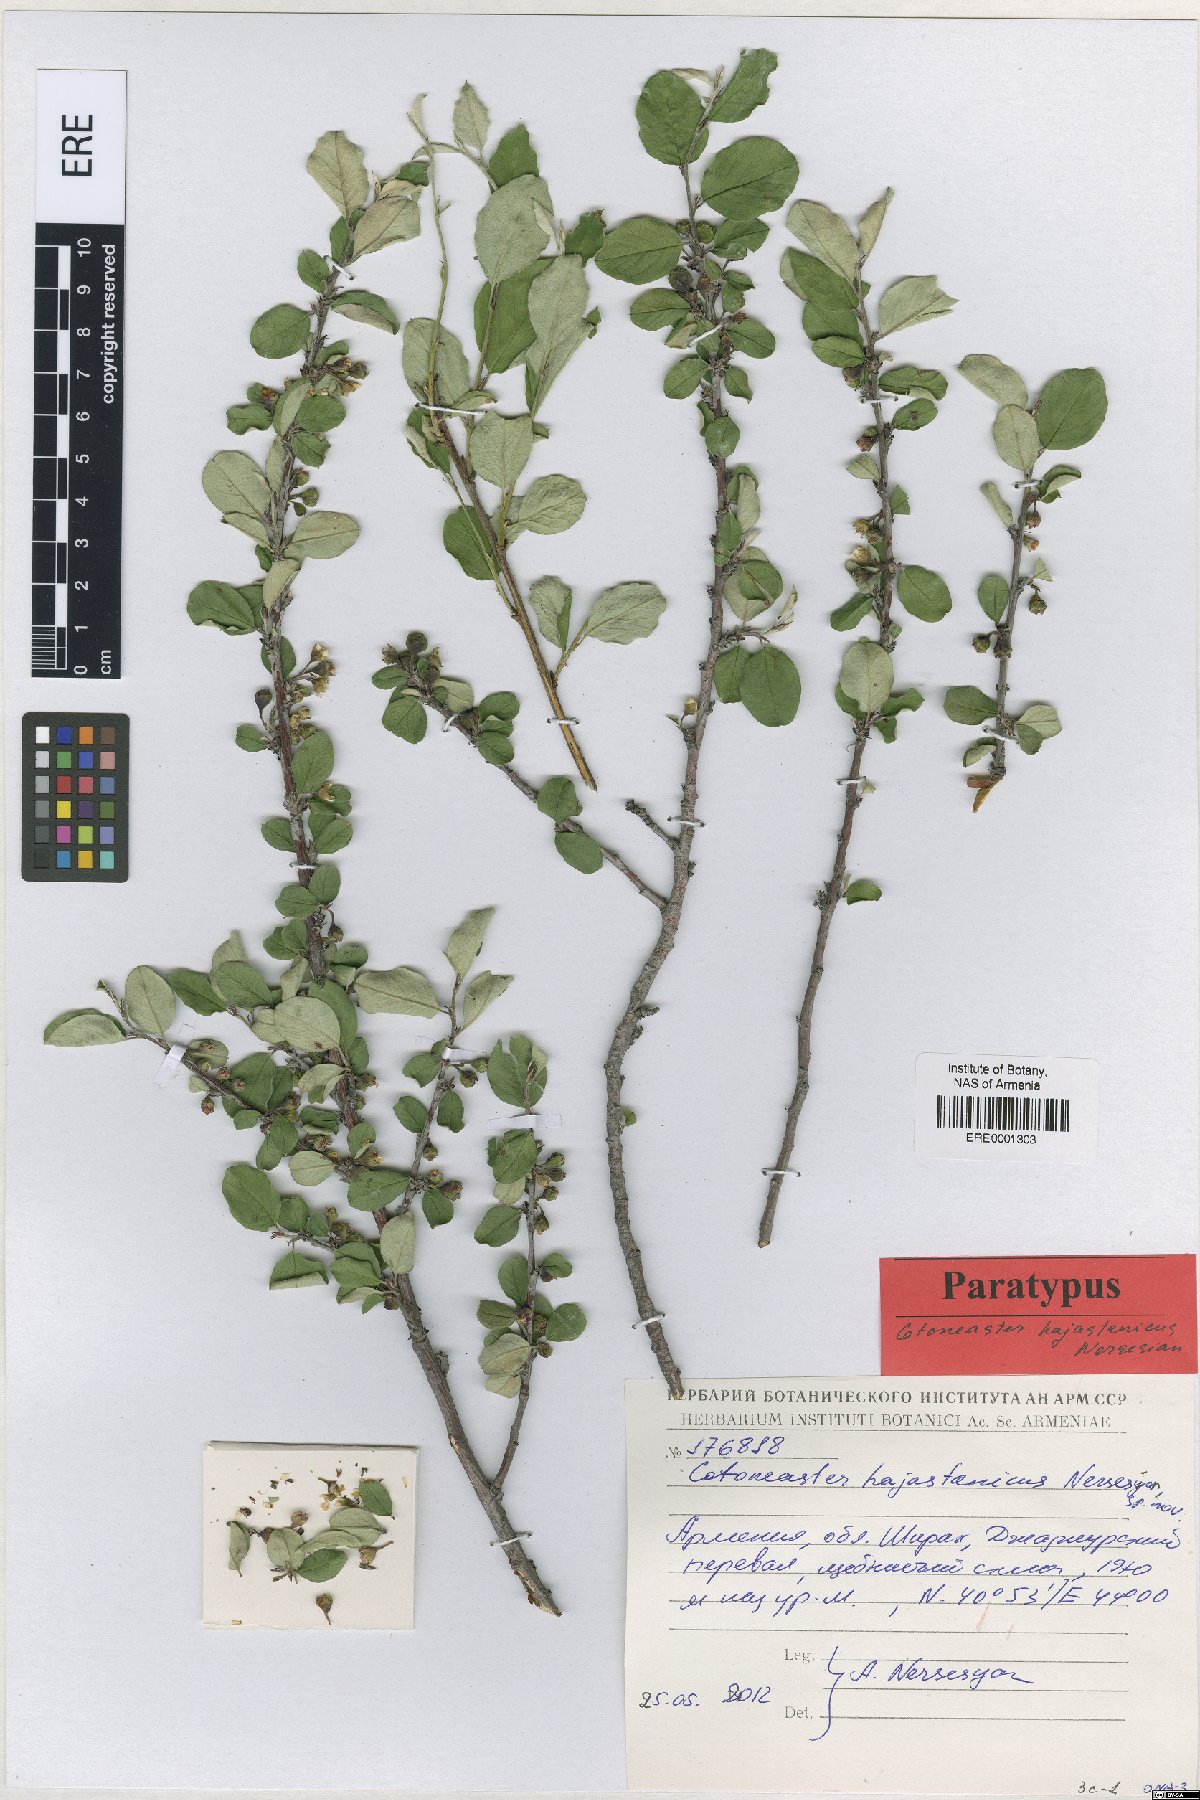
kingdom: Plantae
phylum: Tracheophyta
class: Magnoliopsida
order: Rosales
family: Rosaceae
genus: Cotoneaster
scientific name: Cotoneaster hajastanicus
